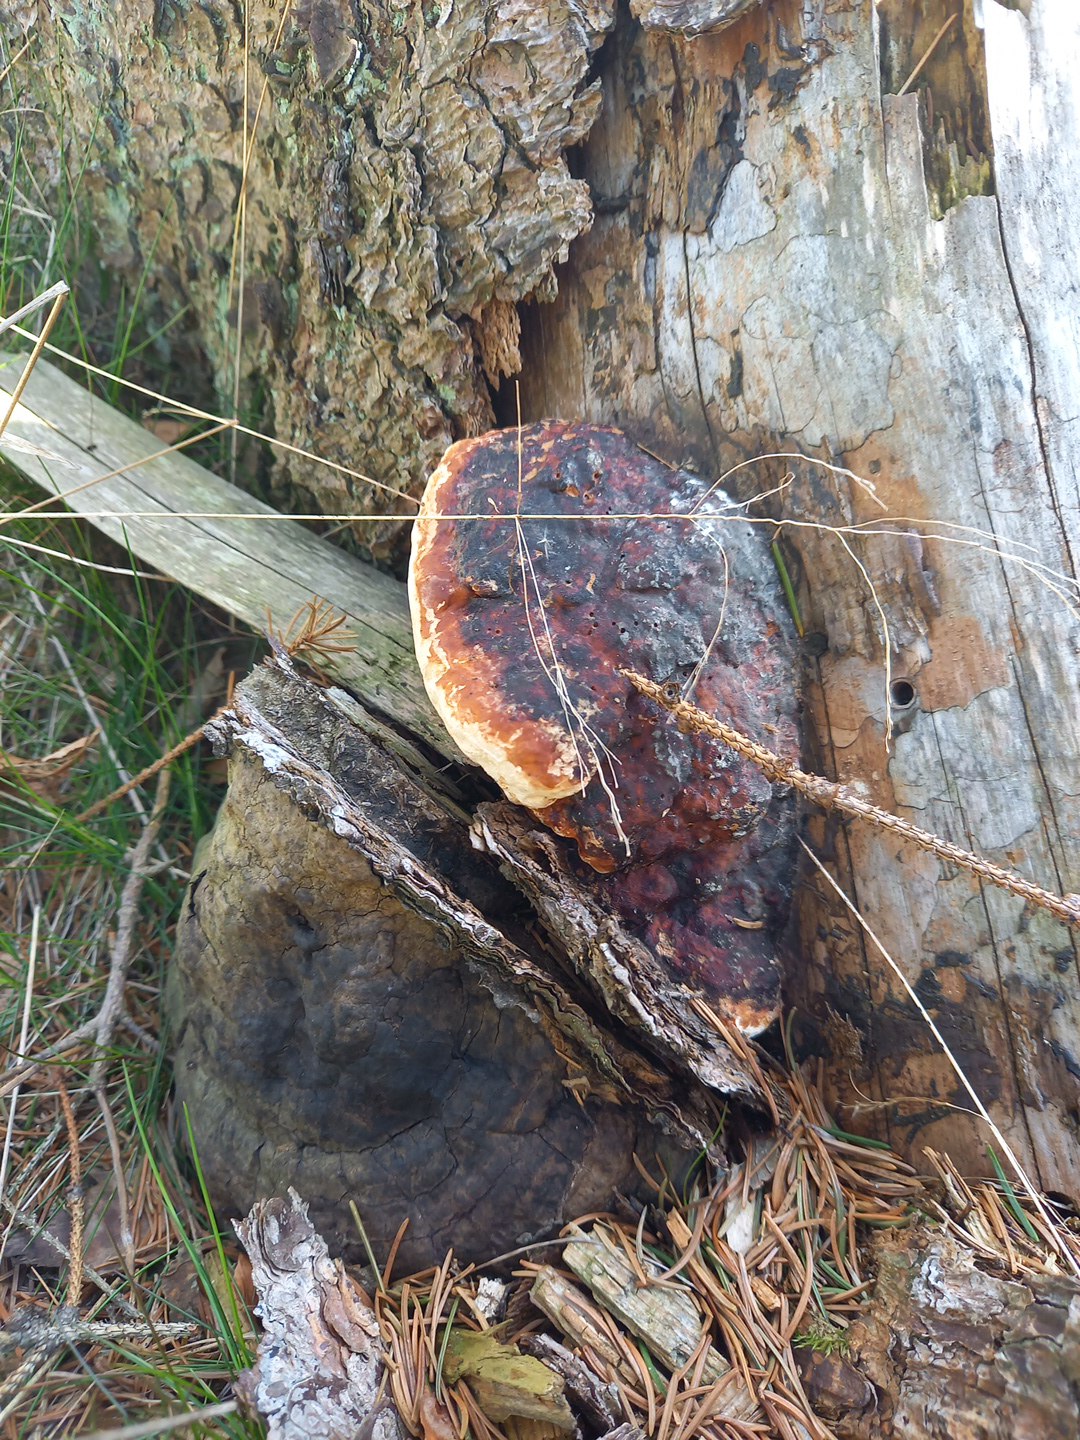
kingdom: Fungi
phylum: Basidiomycota
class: Agaricomycetes
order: Polyporales
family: Fomitopsidaceae
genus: Fomitopsis
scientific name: Fomitopsis pinicola
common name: randbæltet hovporesvamp
